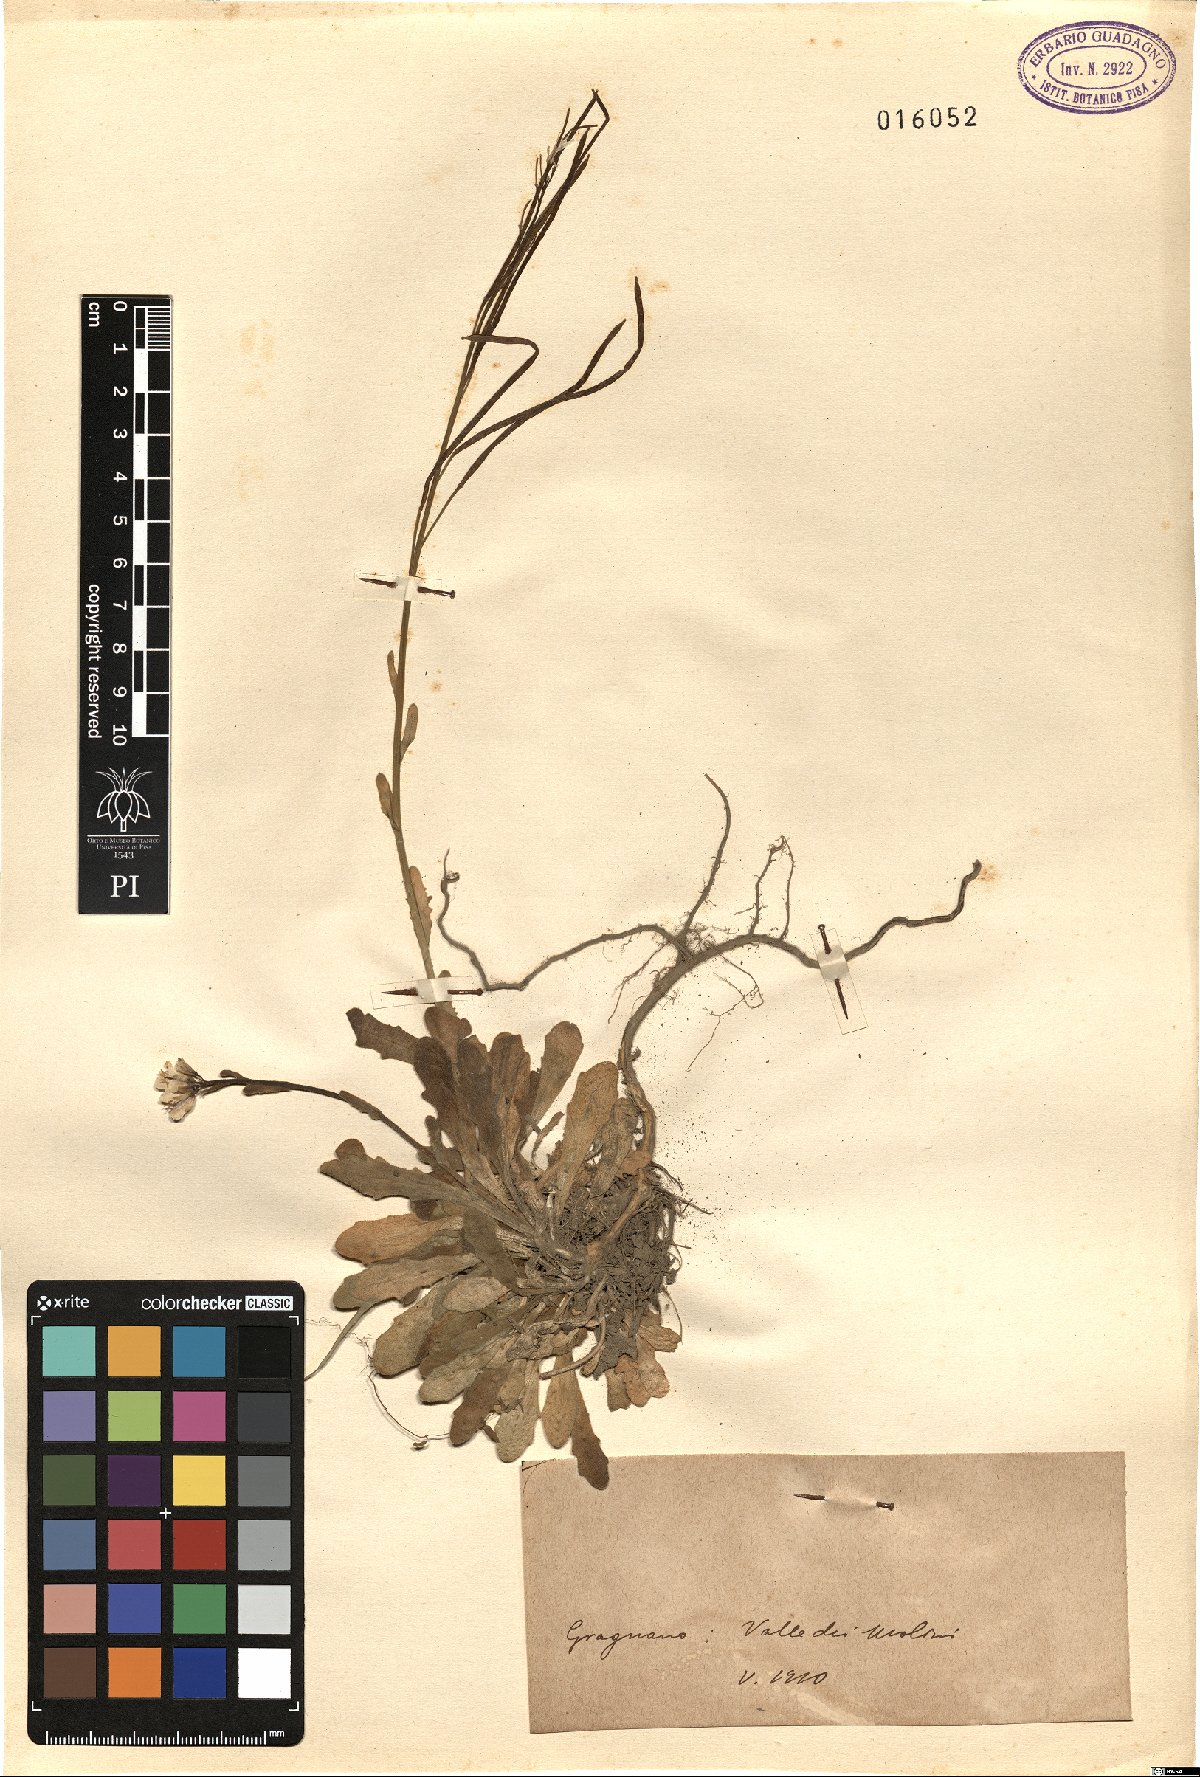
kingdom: Plantae
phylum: Tracheophyta
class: Magnoliopsida
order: Brassicales
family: Brassicaceae
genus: Arabis
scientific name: Arabis
